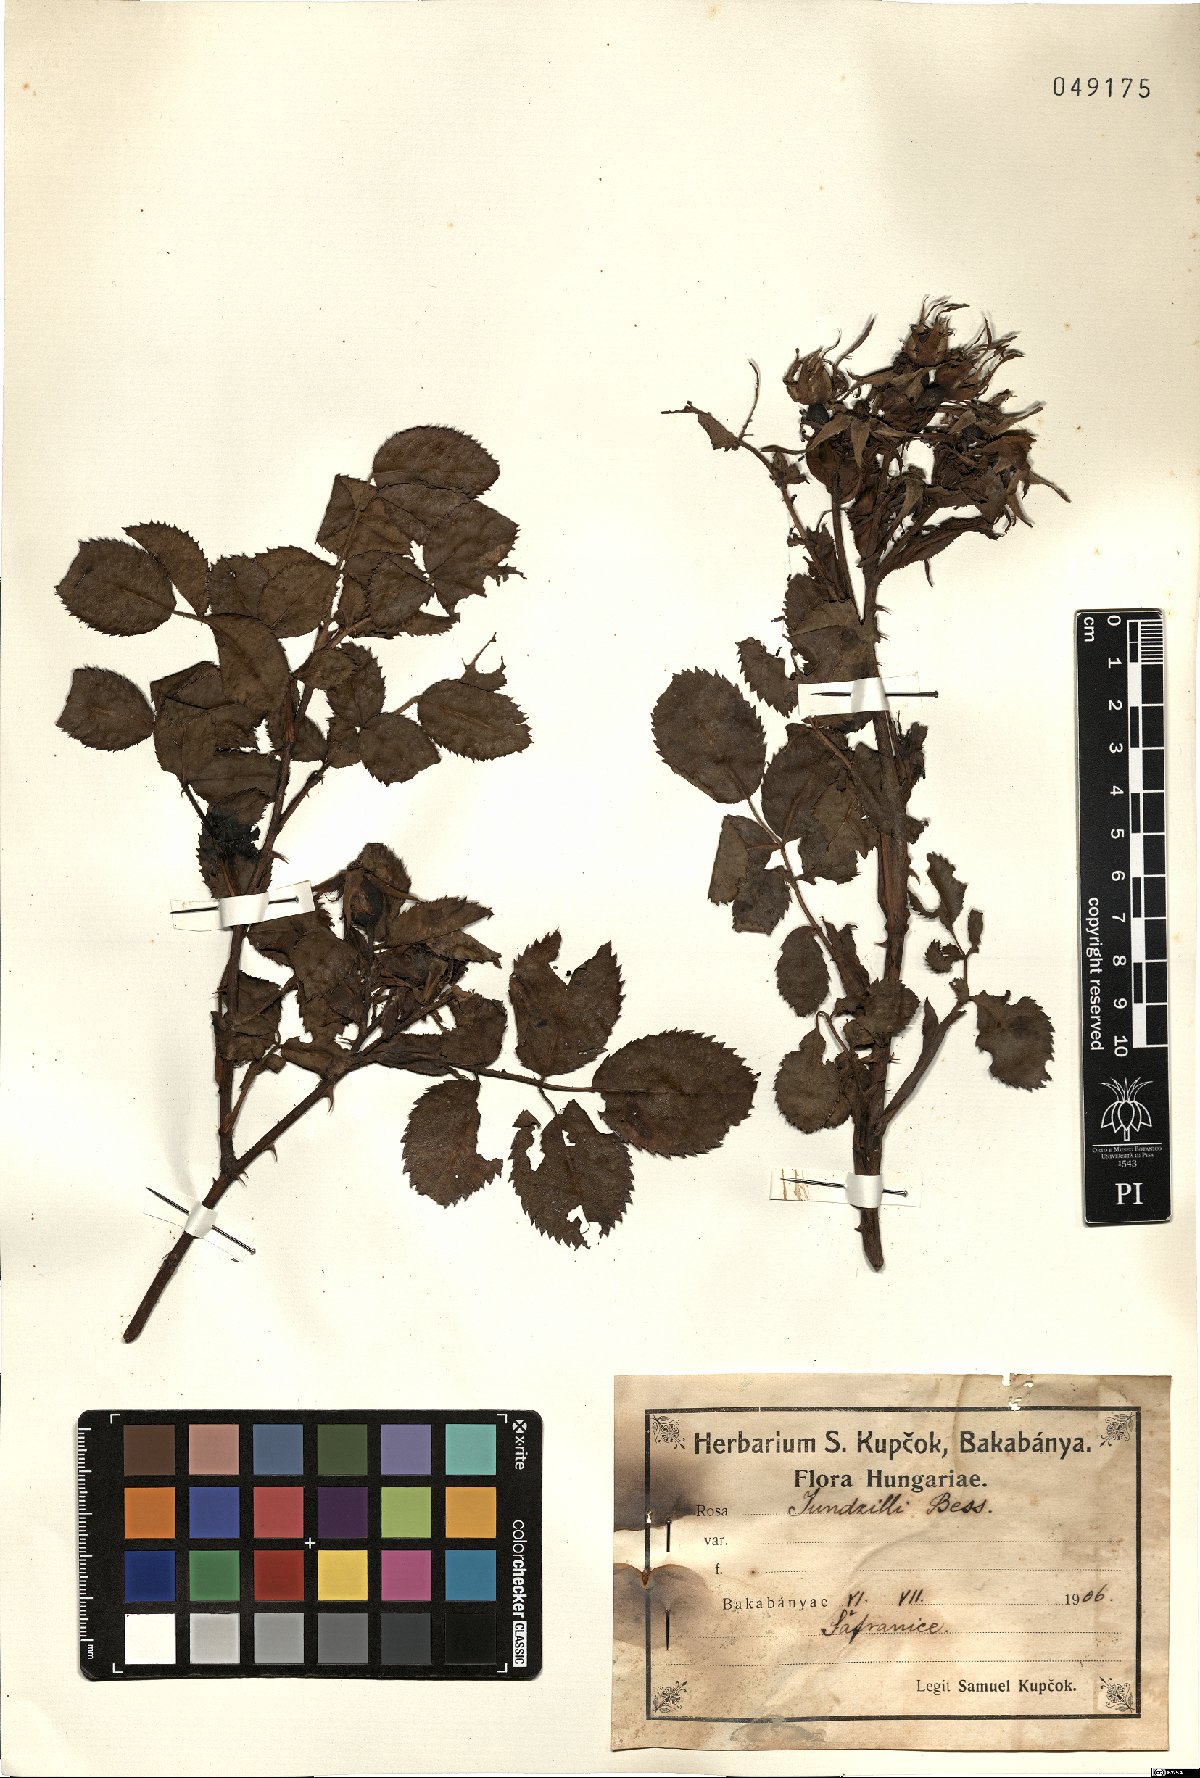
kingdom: Plantae
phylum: Tracheophyta
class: Magnoliopsida
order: Rosales
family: Rosaceae
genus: Rosa
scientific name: Rosa marginata
